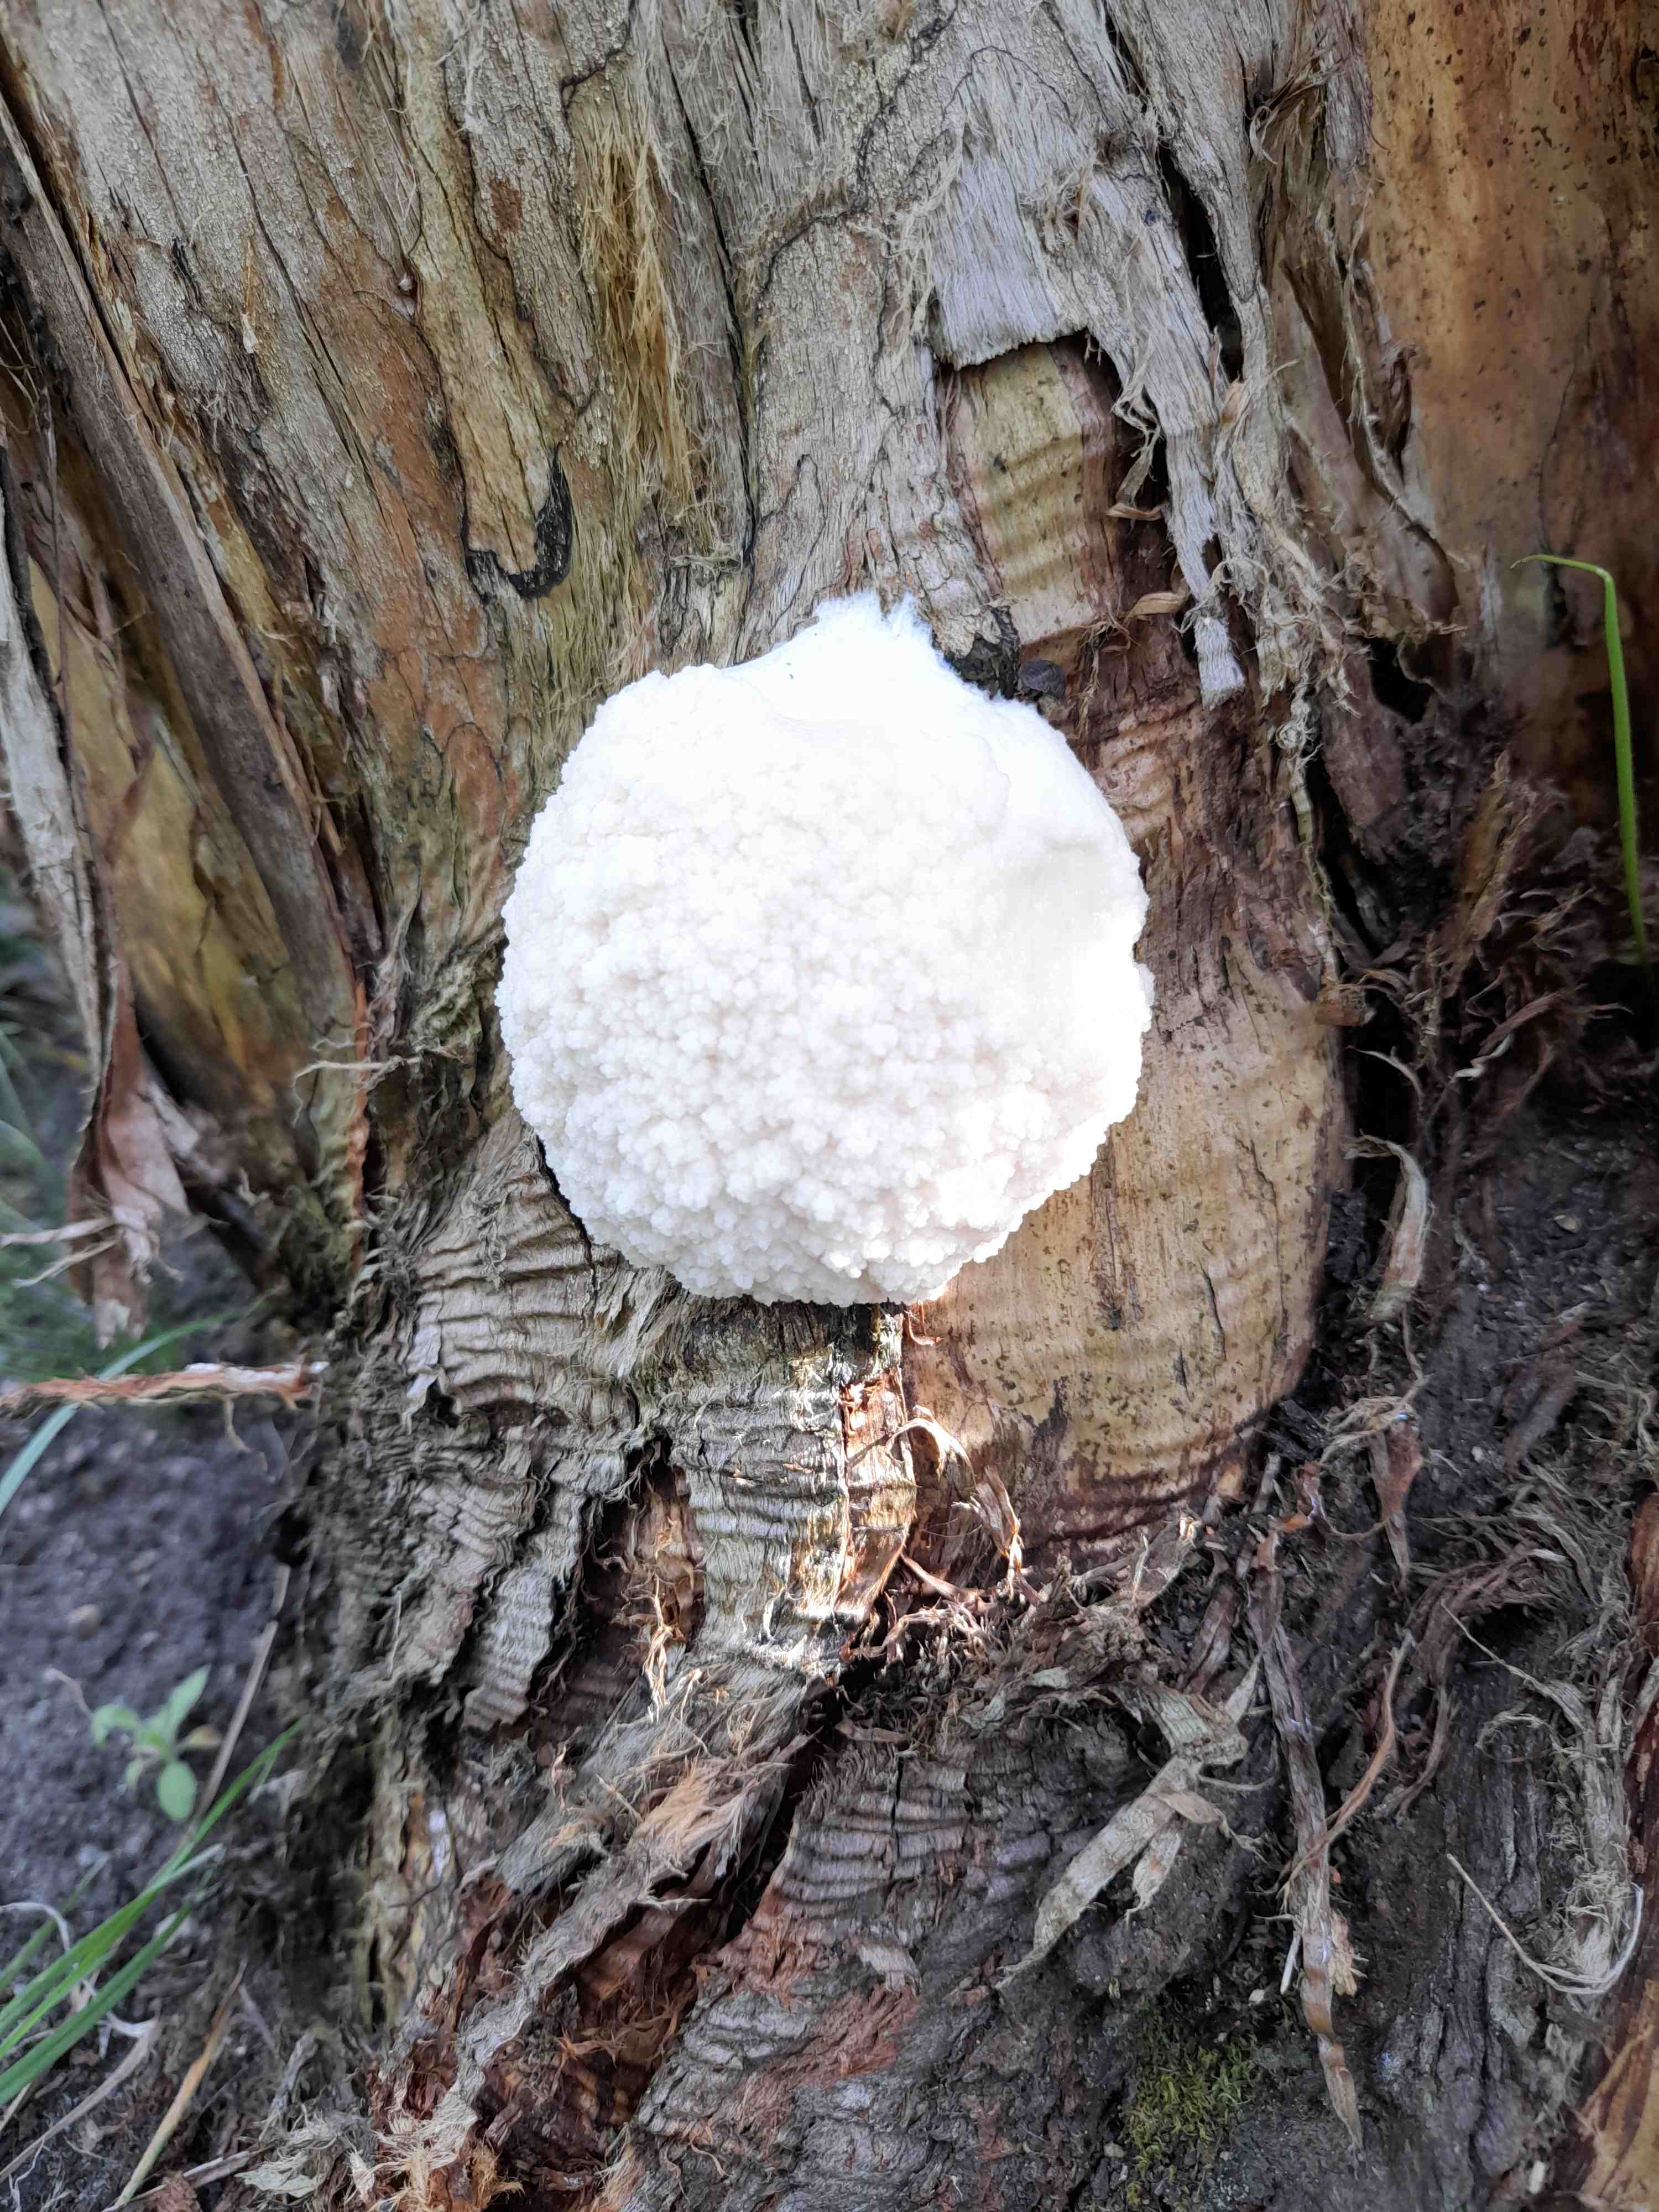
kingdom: Protozoa
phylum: Mycetozoa
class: Myxomycetes
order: Cribrariales
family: Tubiferaceae
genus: Reticularia
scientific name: Reticularia lycoperdon
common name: skinnende støvpude
